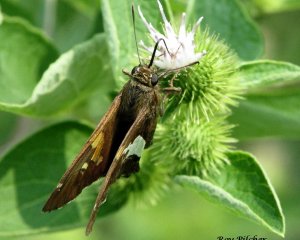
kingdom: Animalia
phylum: Arthropoda
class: Insecta
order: Lepidoptera
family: Hesperiidae
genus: Epargyreus
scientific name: Epargyreus clarus
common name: Silver-spotted Skipper
